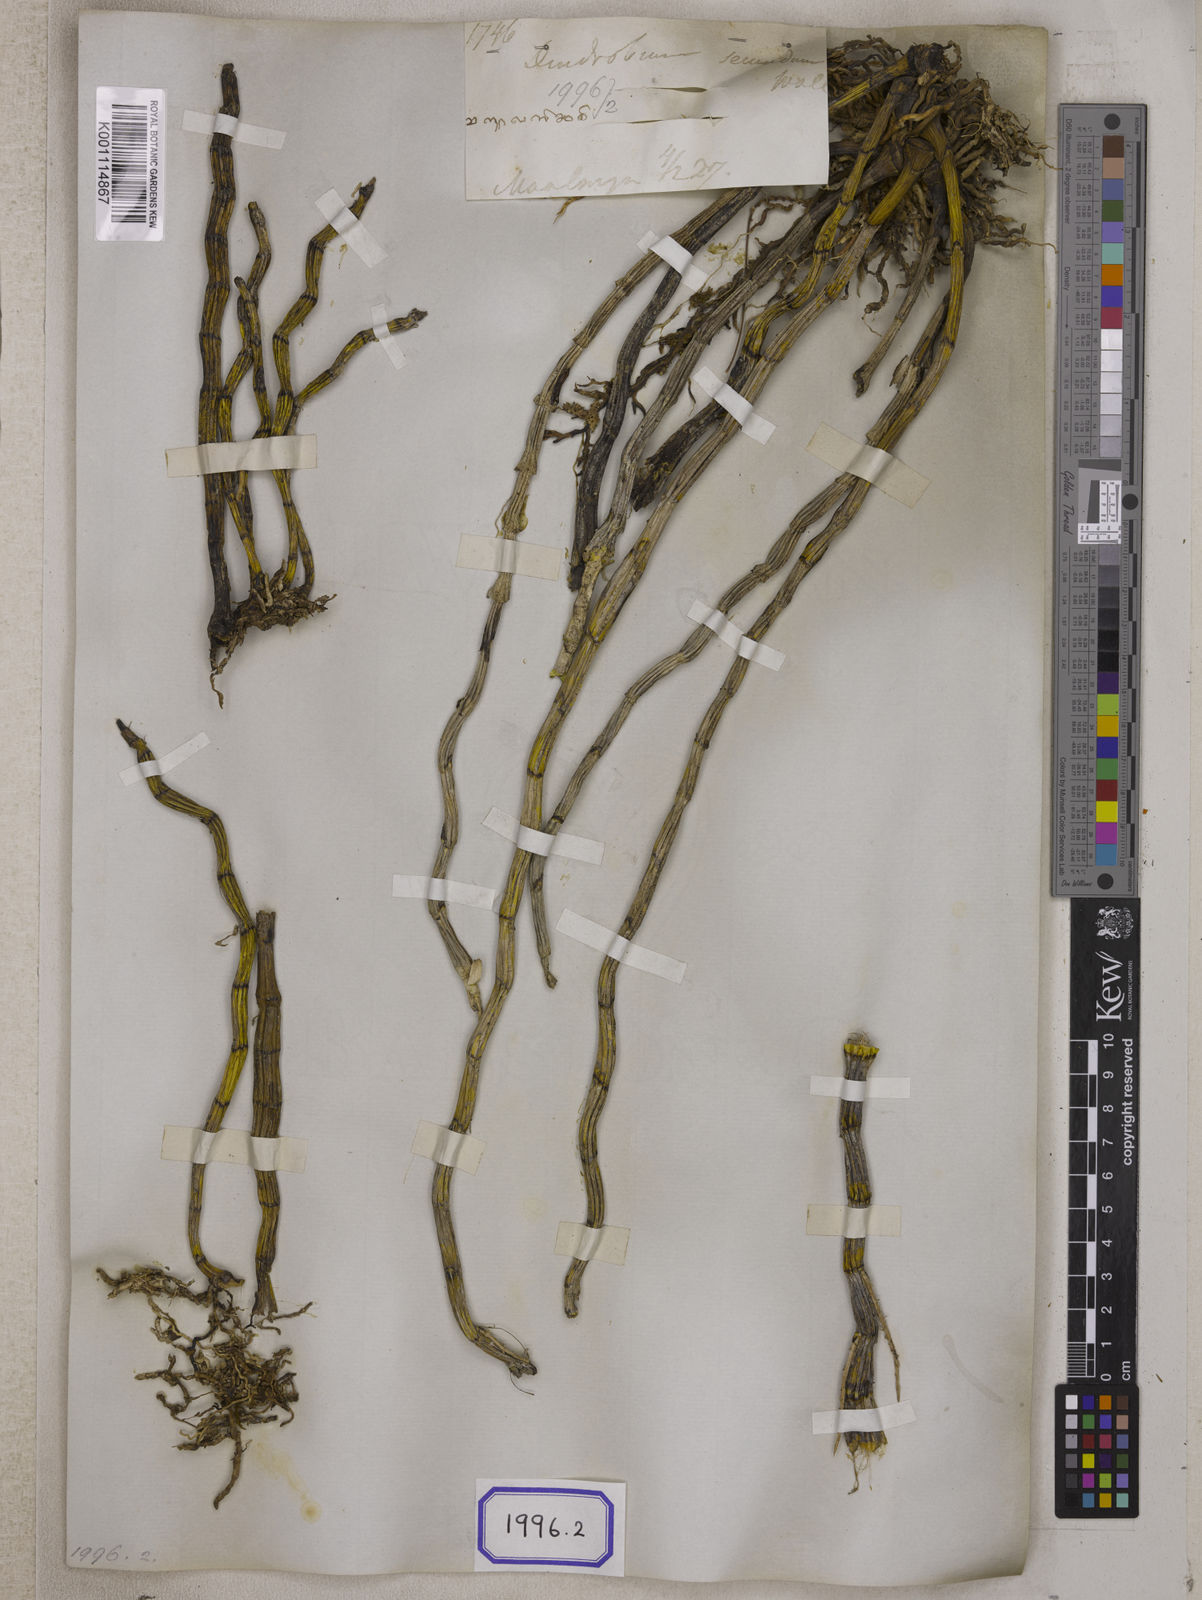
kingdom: Plantae
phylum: Tracheophyta
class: Liliopsida
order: Asparagales
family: Orchidaceae
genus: Dendrobium
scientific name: Dendrobium
